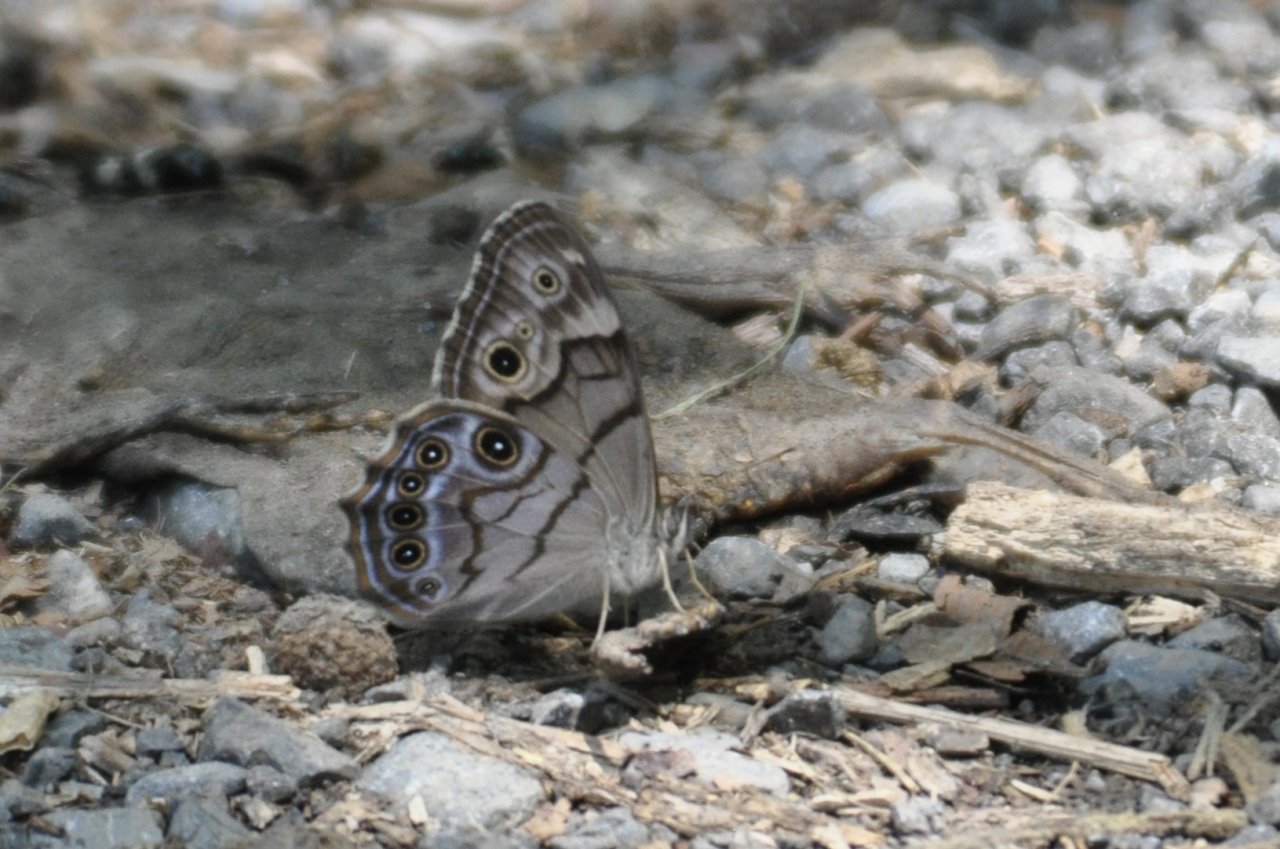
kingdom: Animalia
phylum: Arthropoda
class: Insecta
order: Lepidoptera
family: Nymphalidae
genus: Lethe
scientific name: Lethe anthedon
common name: Northern Pearly-Eye
